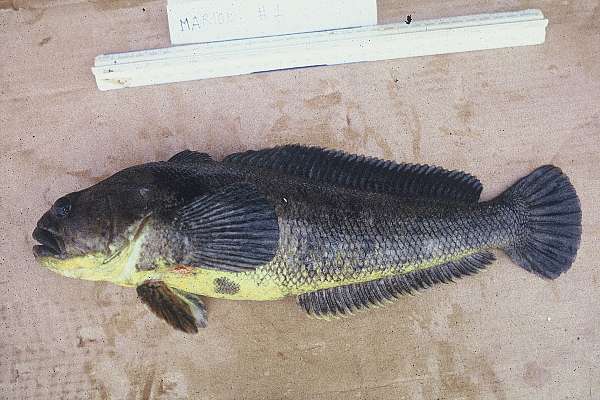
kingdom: Animalia
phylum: Chordata
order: Perciformes
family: Nototheniidae
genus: Notothenia
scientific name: Notothenia coriiceps
